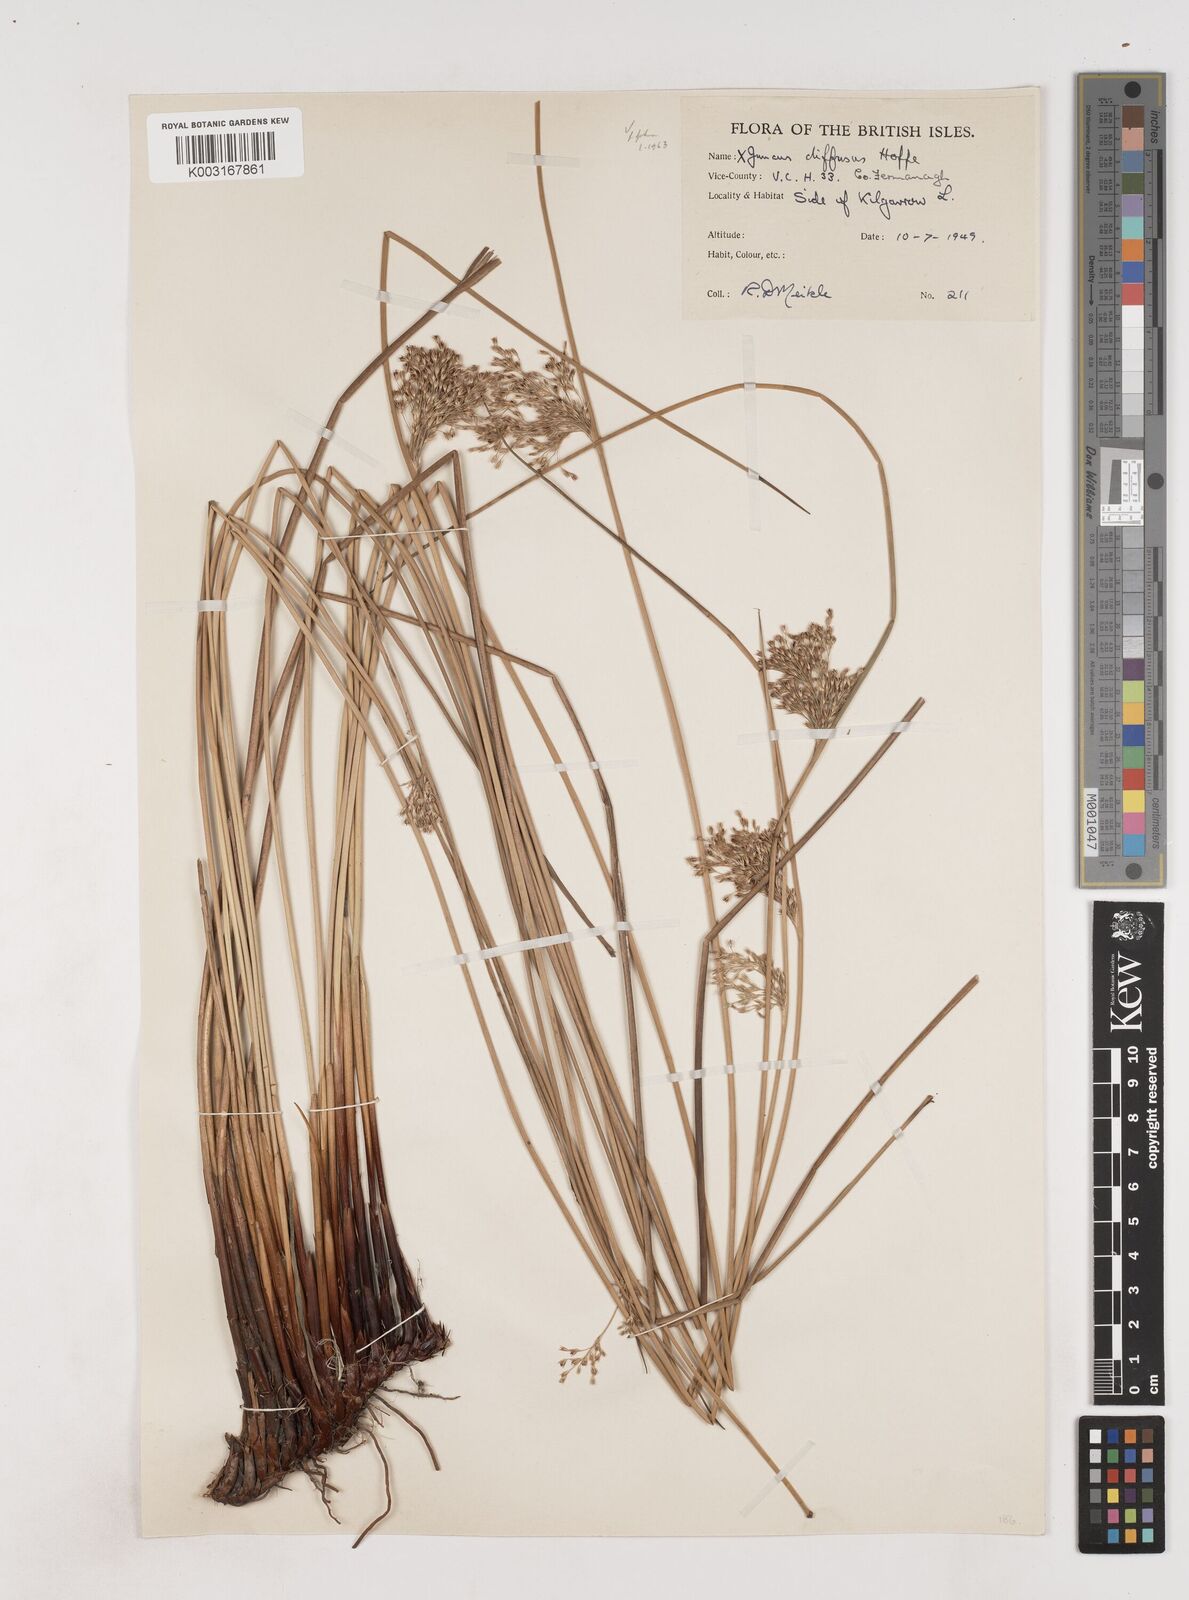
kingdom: Plantae
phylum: Tracheophyta
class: Liliopsida
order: Poales
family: Juncaceae
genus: Juncus
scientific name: Juncus effusus
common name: Soft rush
